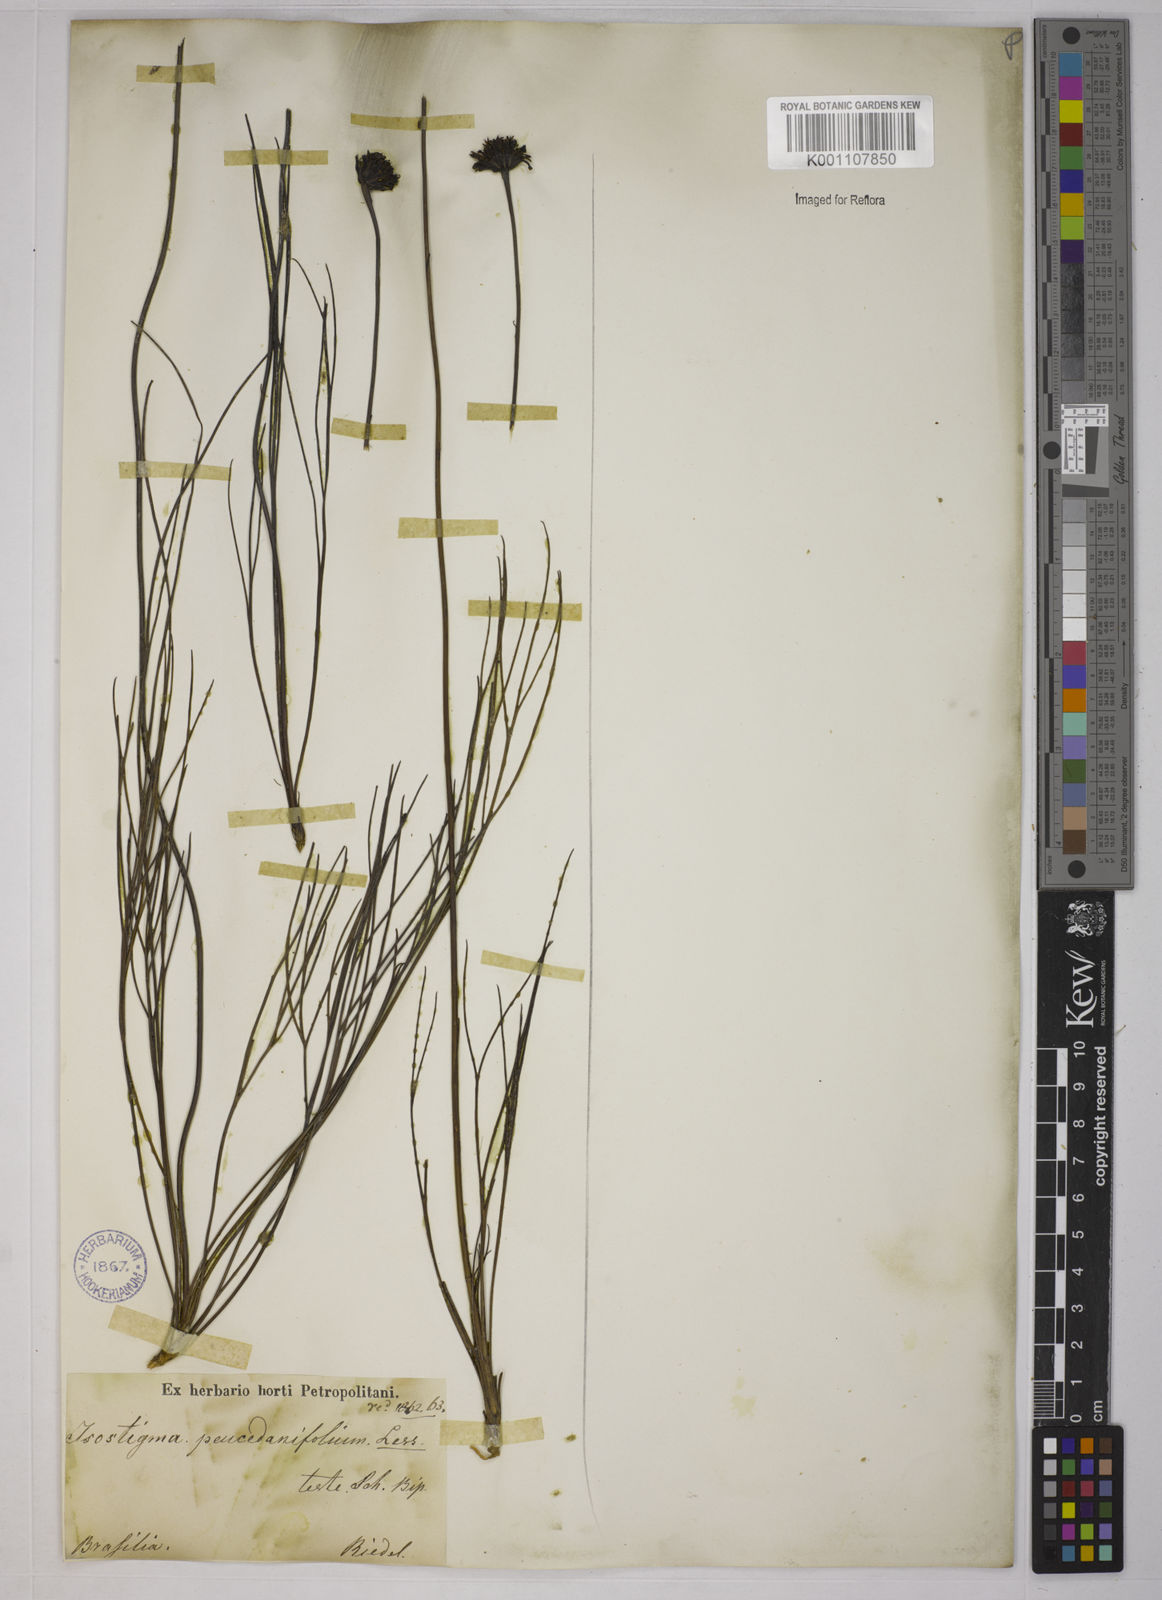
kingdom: Plantae
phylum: Tracheophyta
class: Magnoliopsida
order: Asterales
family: Asteraceae
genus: Isostigma
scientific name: Isostigma
